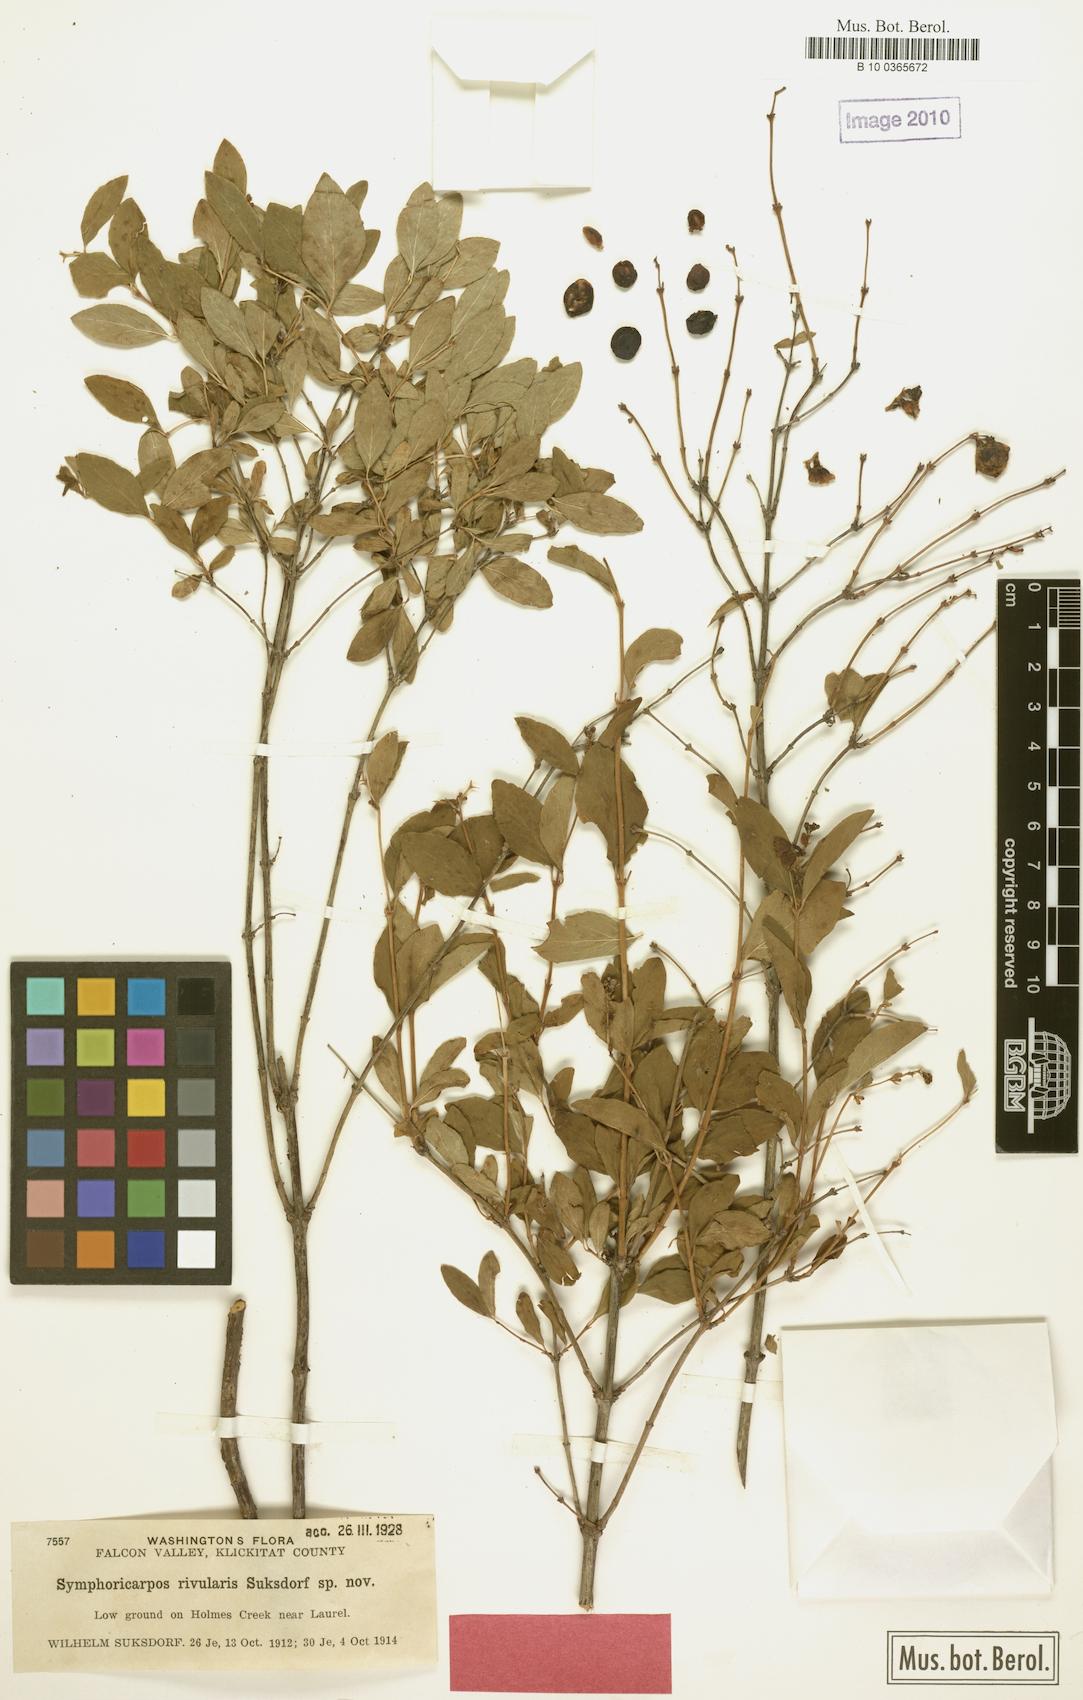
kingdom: Plantae
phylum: Tracheophyta
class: Magnoliopsida
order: Dipsacales
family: Caprifoliaceae
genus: Symphoricarpos
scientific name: Symphoricarpos albus
